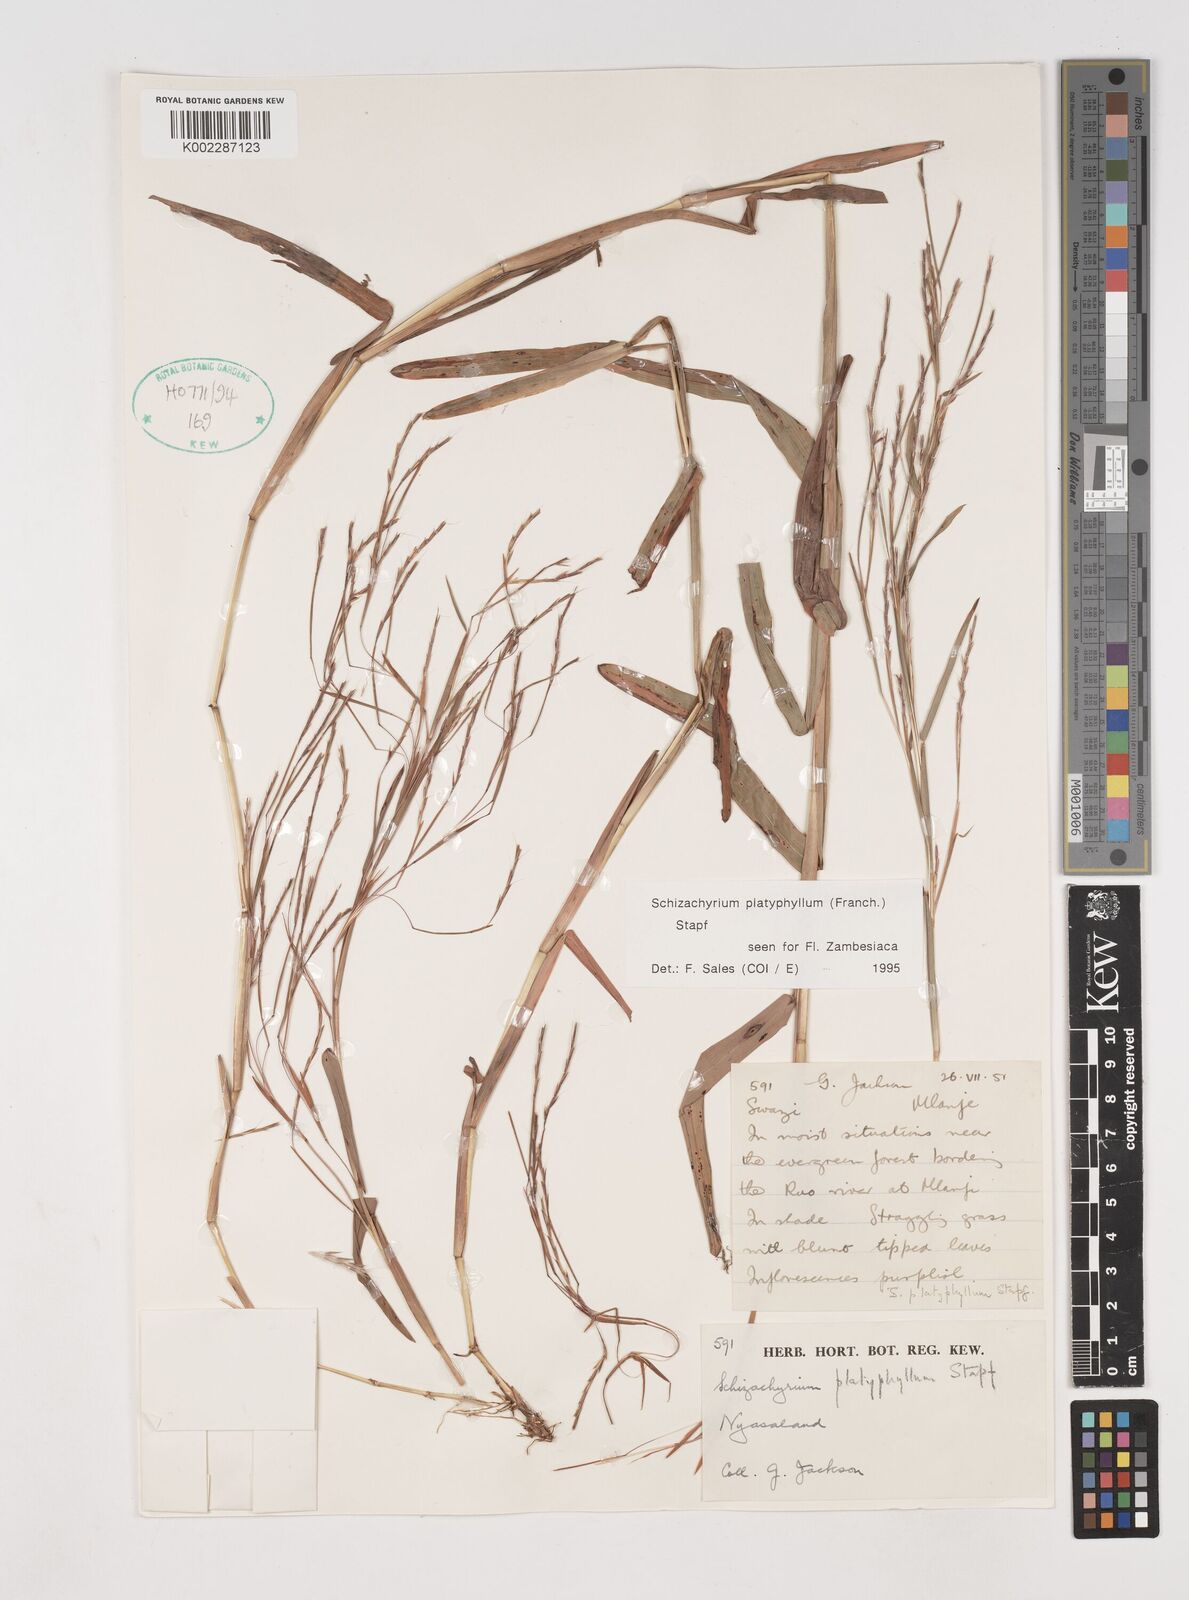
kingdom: Plantae
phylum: Tracheophyta
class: Liliopsida
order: Poales
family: Poaceae
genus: Schizachyrium
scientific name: Schizachyrium platyphyllum
